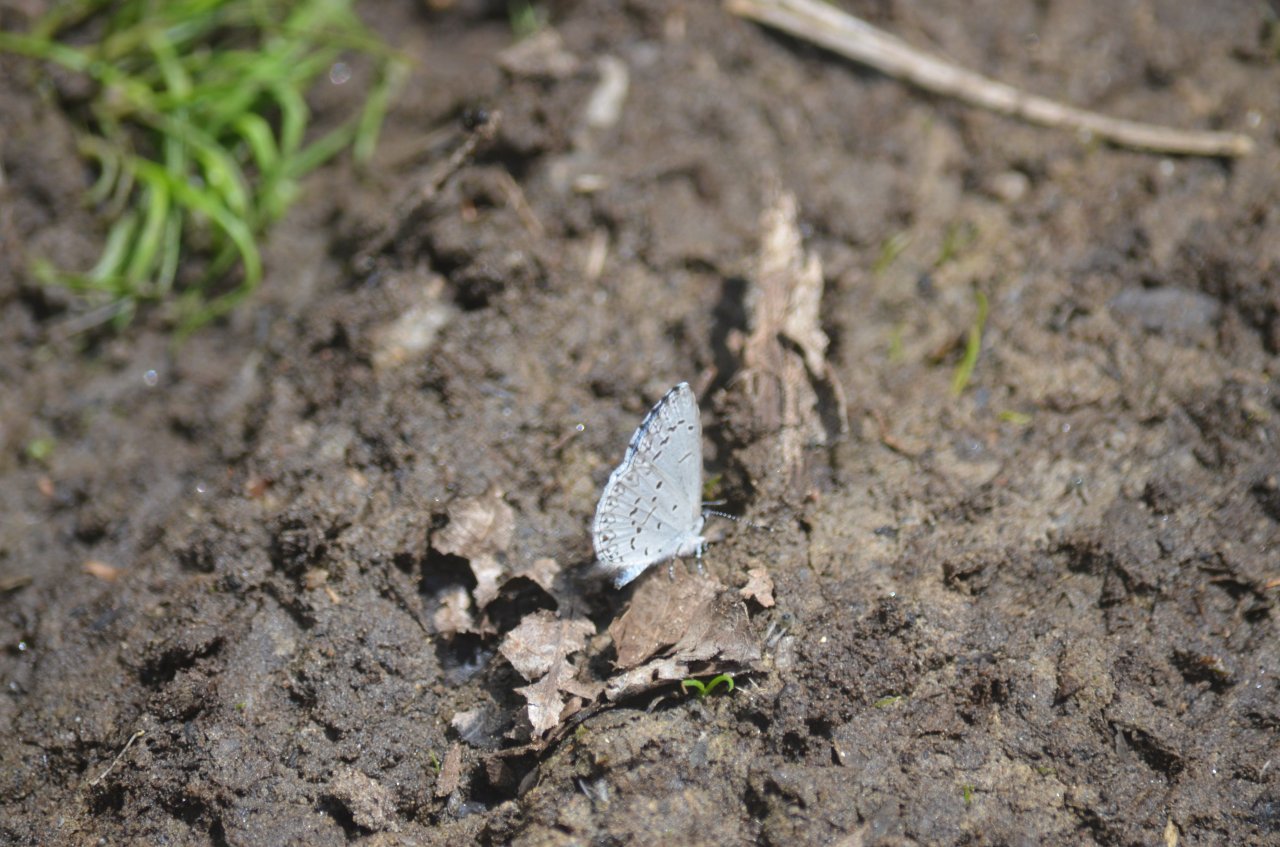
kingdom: Animalia
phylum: Arthropoda
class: Insecta
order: Lepidoptera
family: Lycaenidae
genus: Celastrina
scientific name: Celastrina lucia
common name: Northern Spring Azure
